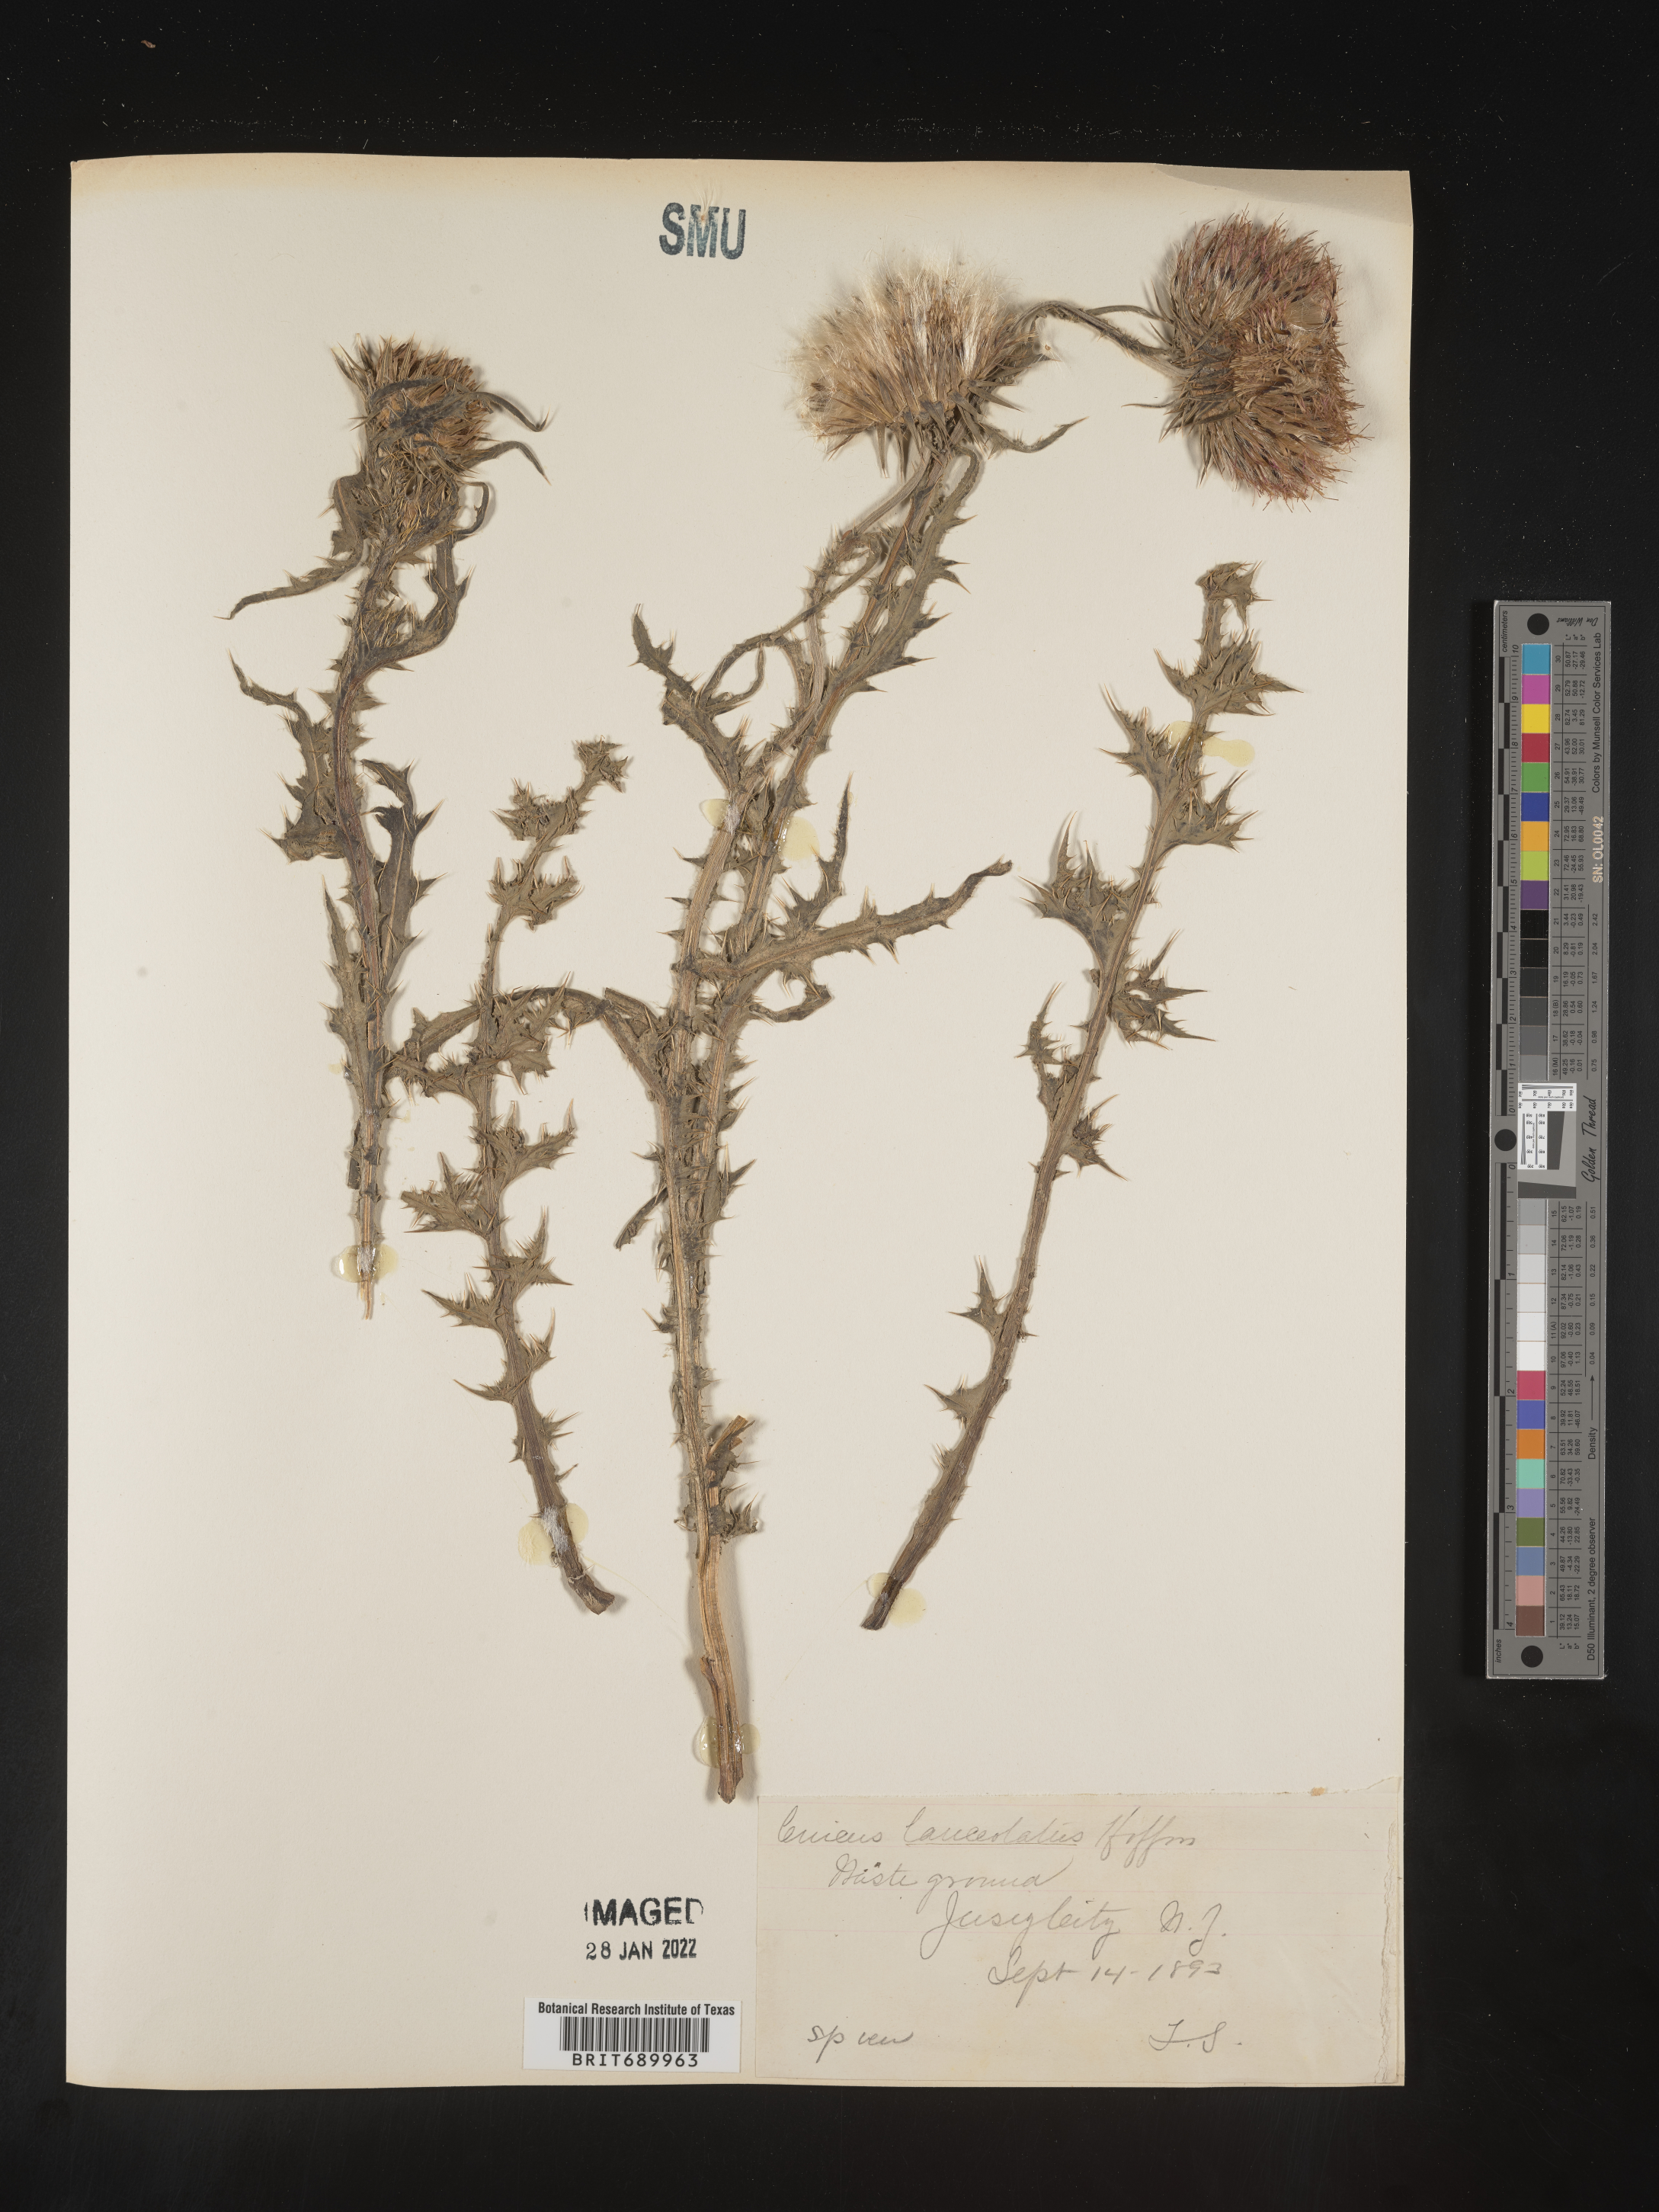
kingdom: Plantae
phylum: Tracheophyta
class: Magnoliopsida
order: Asterales
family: Asteraceae
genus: Cirsium
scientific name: Cirsium vulgare
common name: Bull thistle
